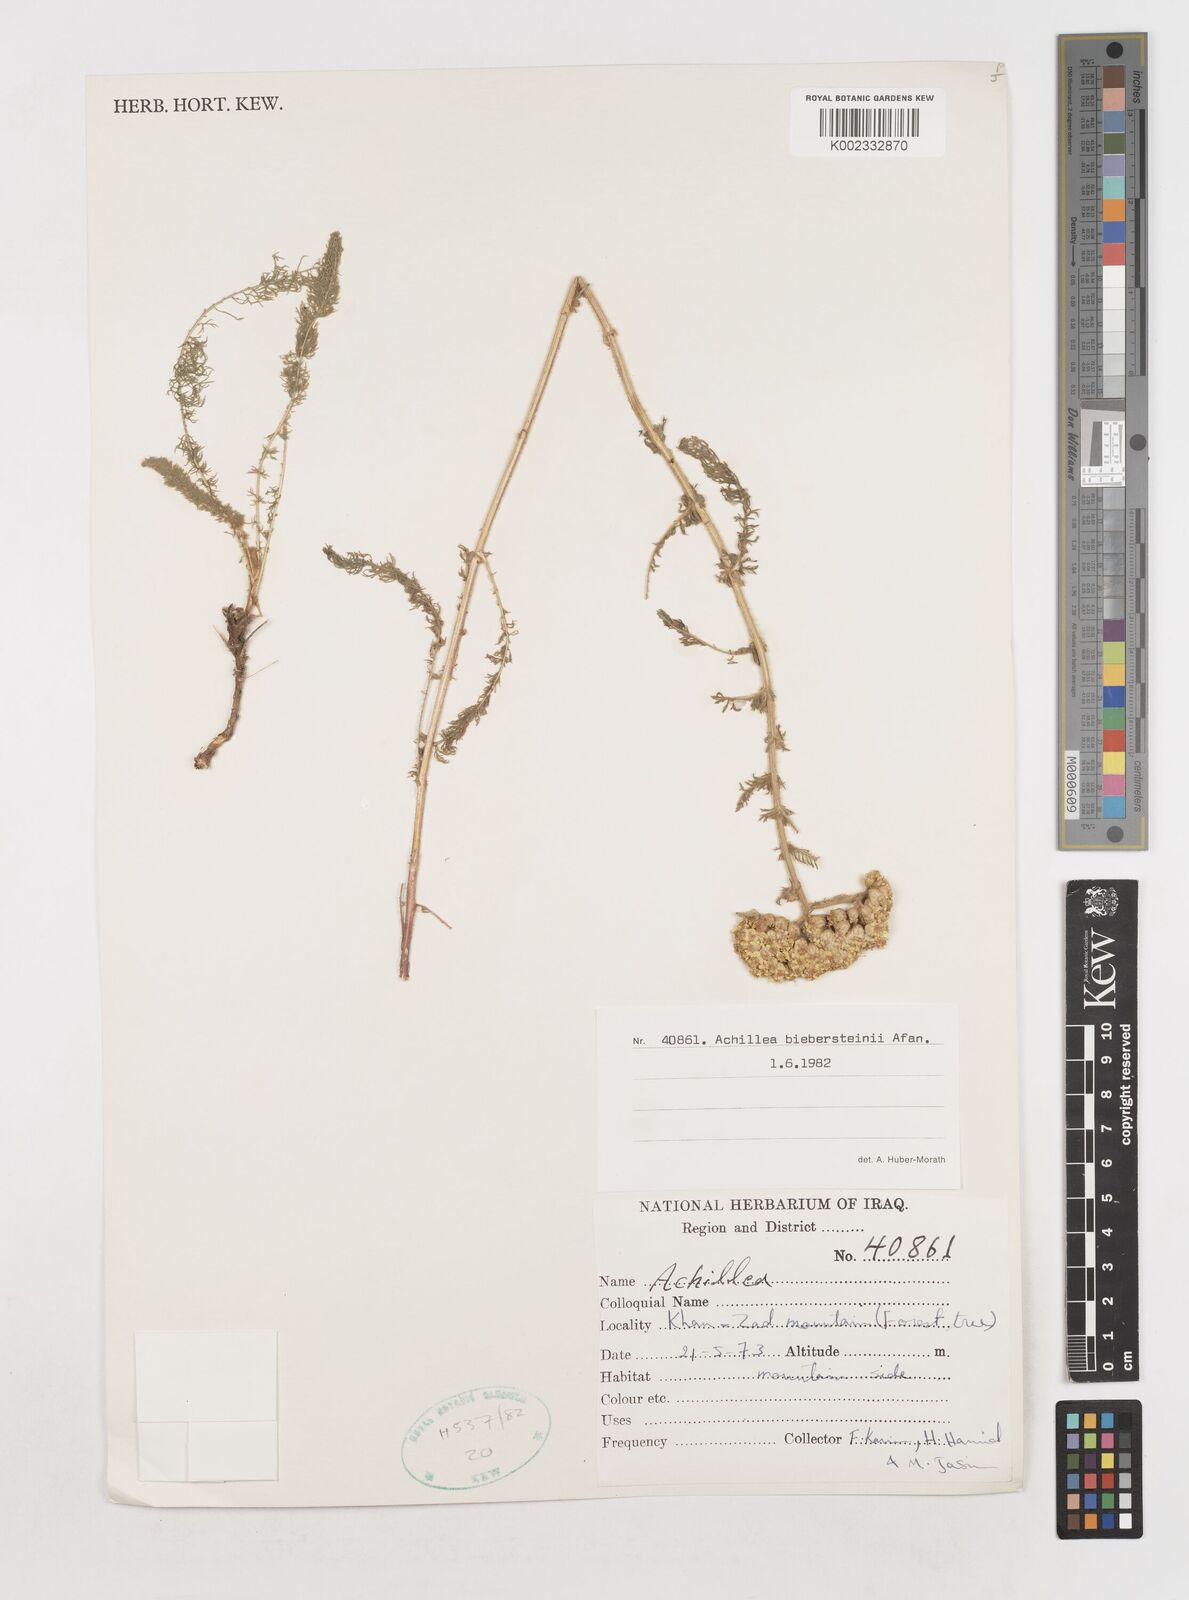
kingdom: Plantae
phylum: Tracheophyta
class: Magnoliopsida
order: Asterales
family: Asteraceae
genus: Achillea
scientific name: Achillea arabica
